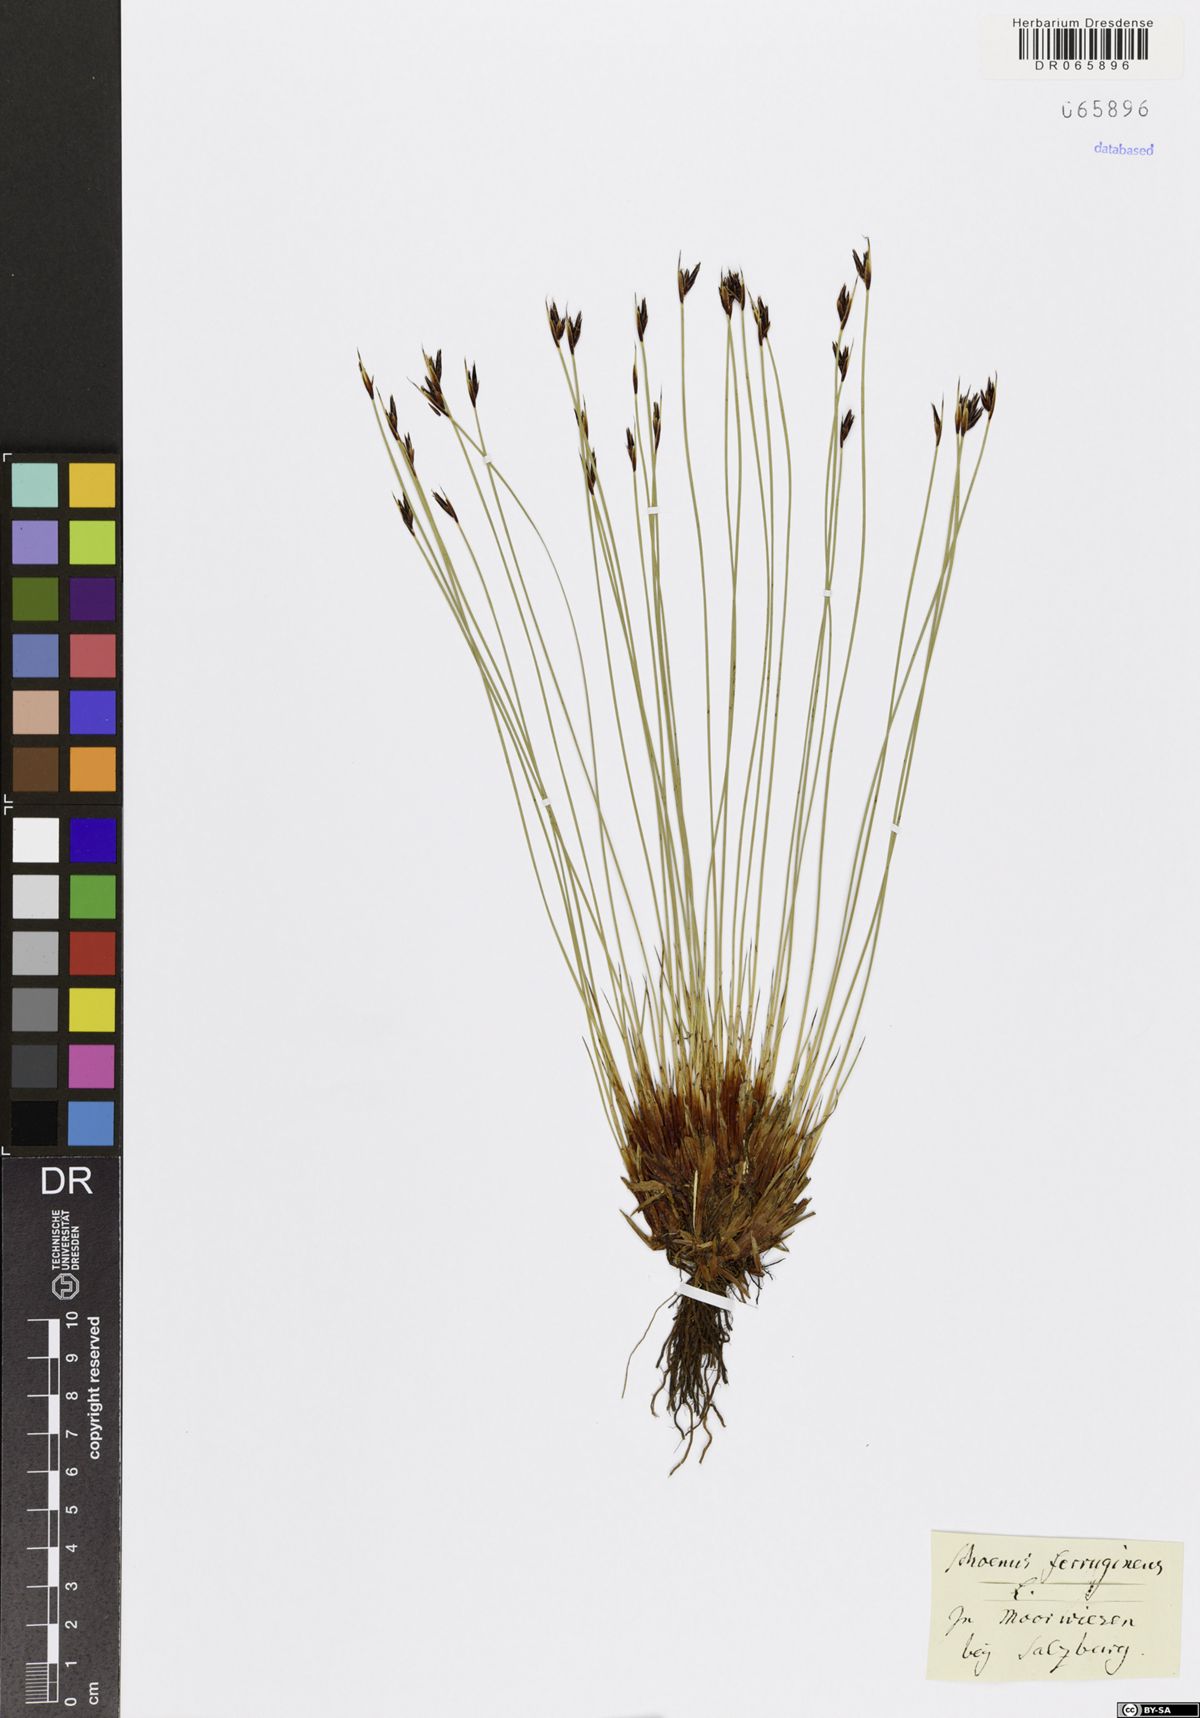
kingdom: Plantae
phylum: Tracheophyta
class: Liliopsida
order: Poales
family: Cyperaceae
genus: Schoenus
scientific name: Schoenus ferrugineus
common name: Brown bog-rush
